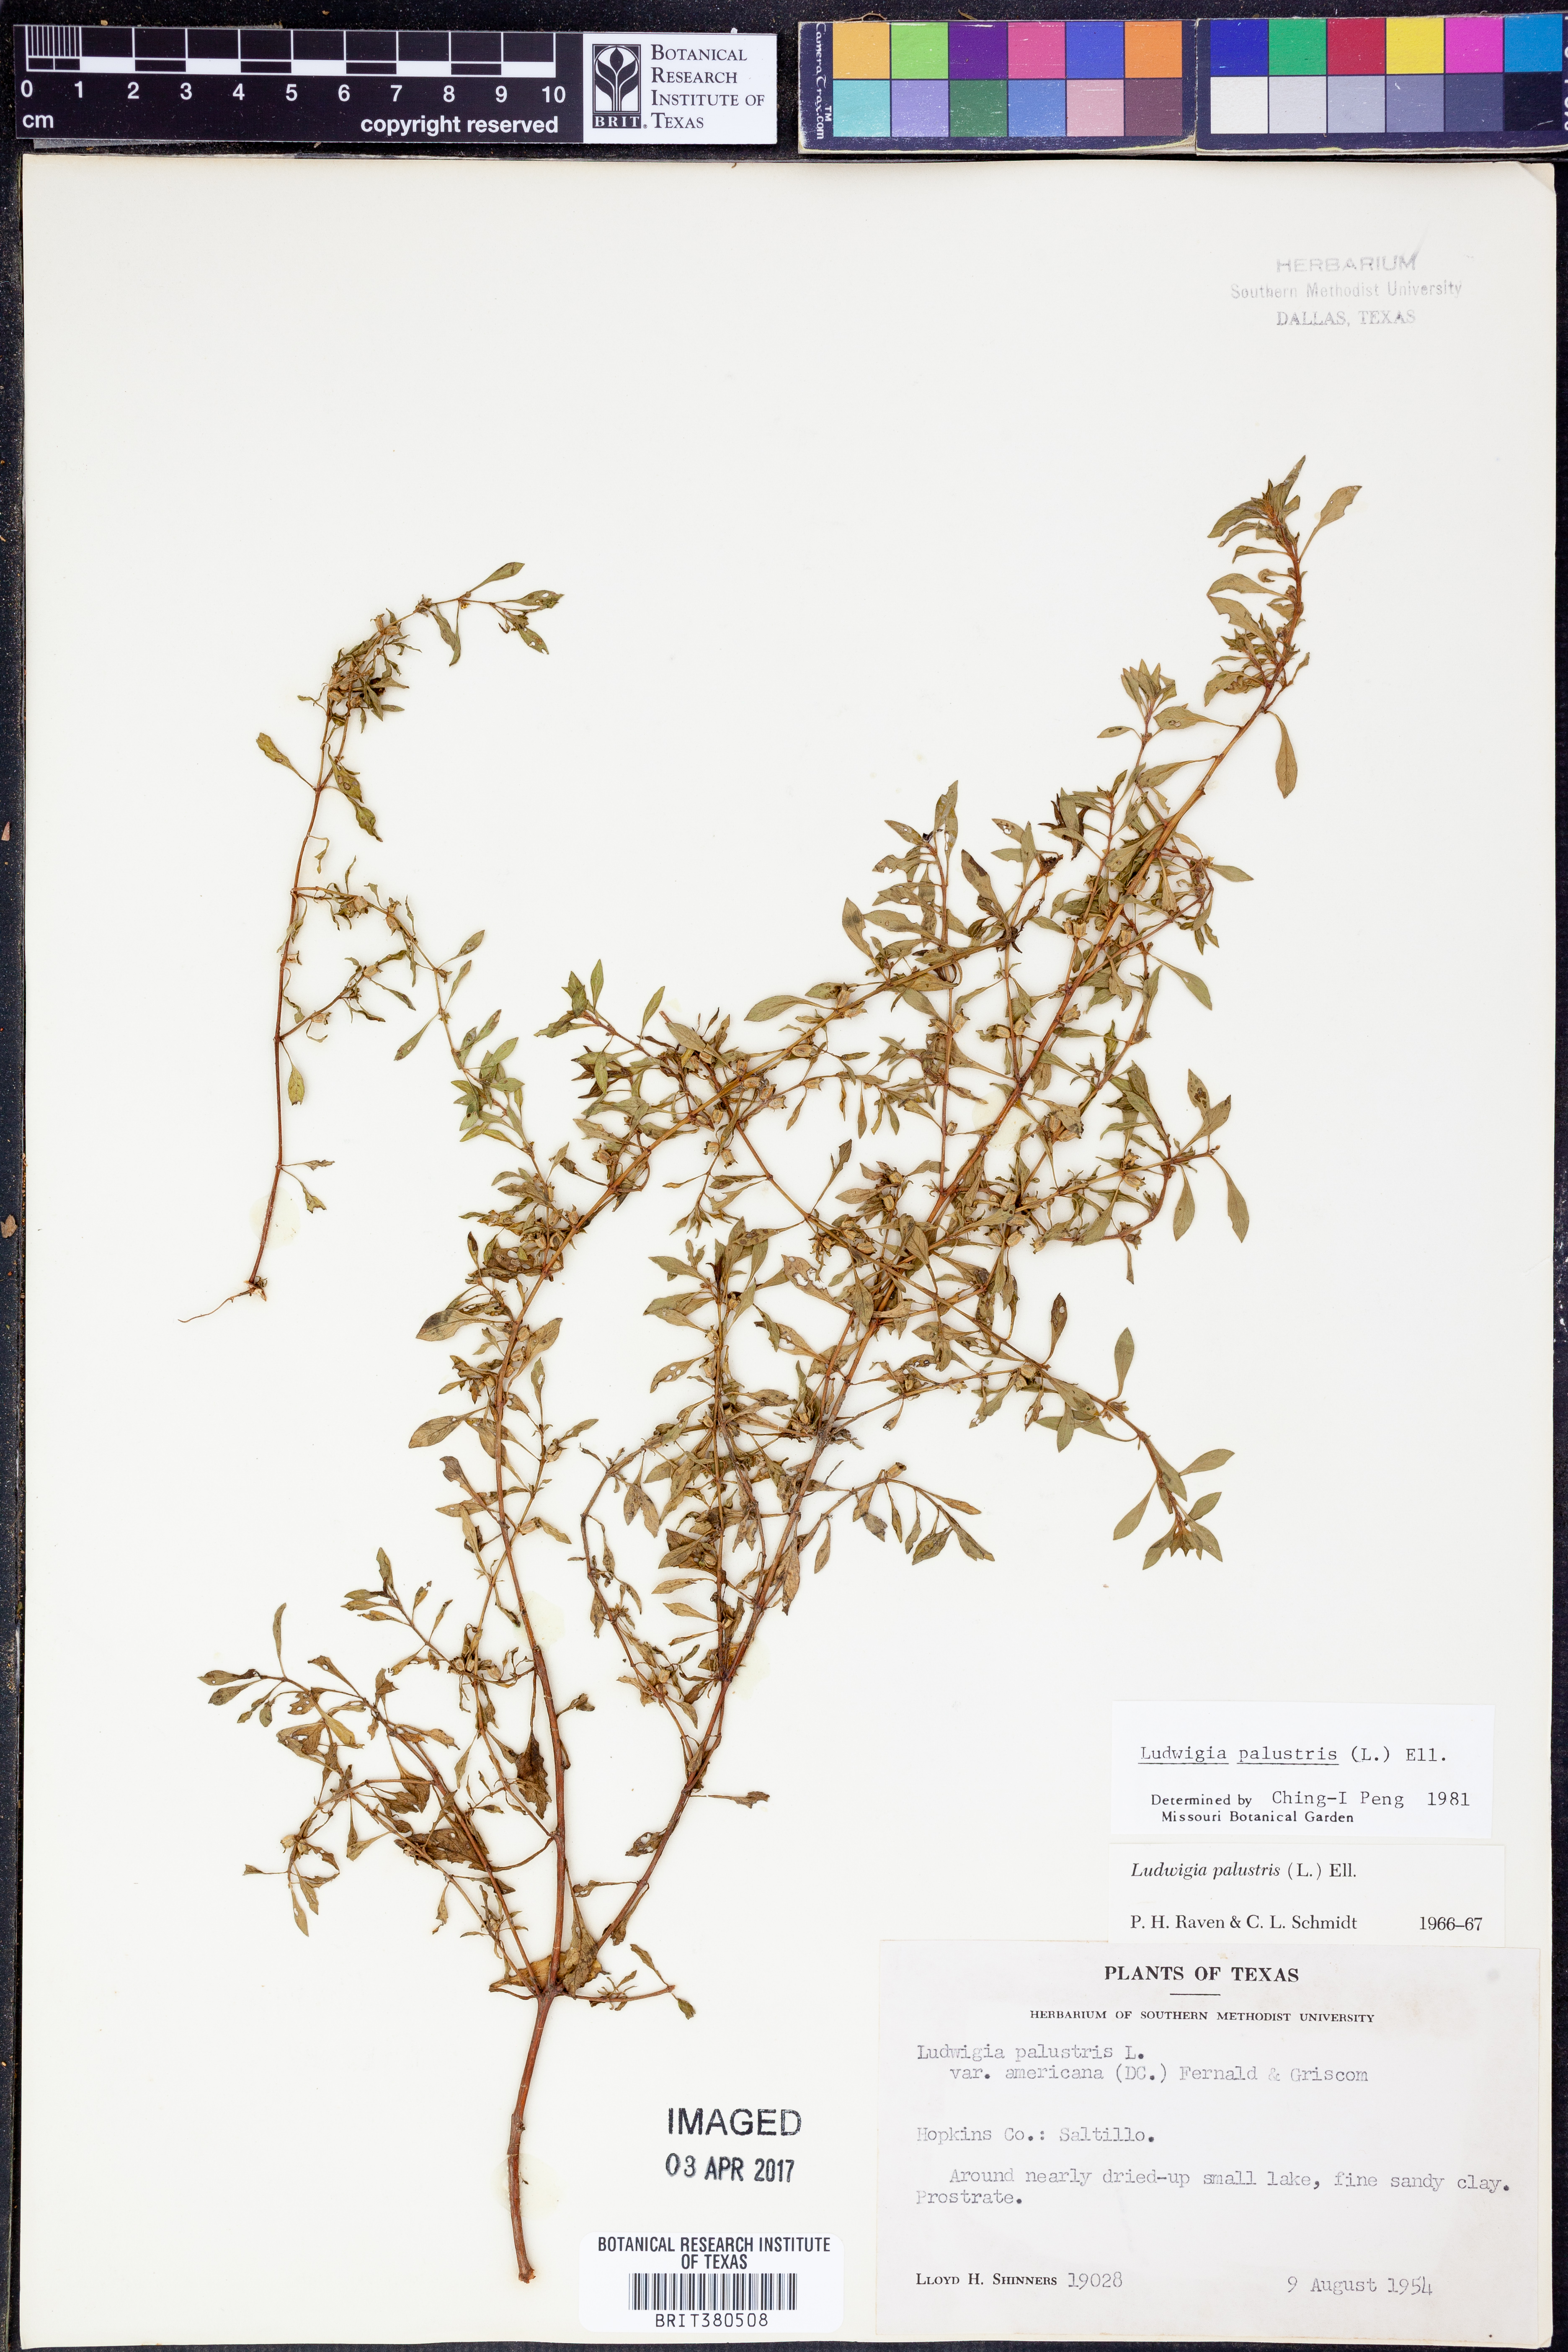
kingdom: Plantae
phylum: Tracheophyta
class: Magnoliopsida
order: Myrtales
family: Onagraceae
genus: Ludwigia
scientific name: Ludwigia palustris
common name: Hampshire-purslane
